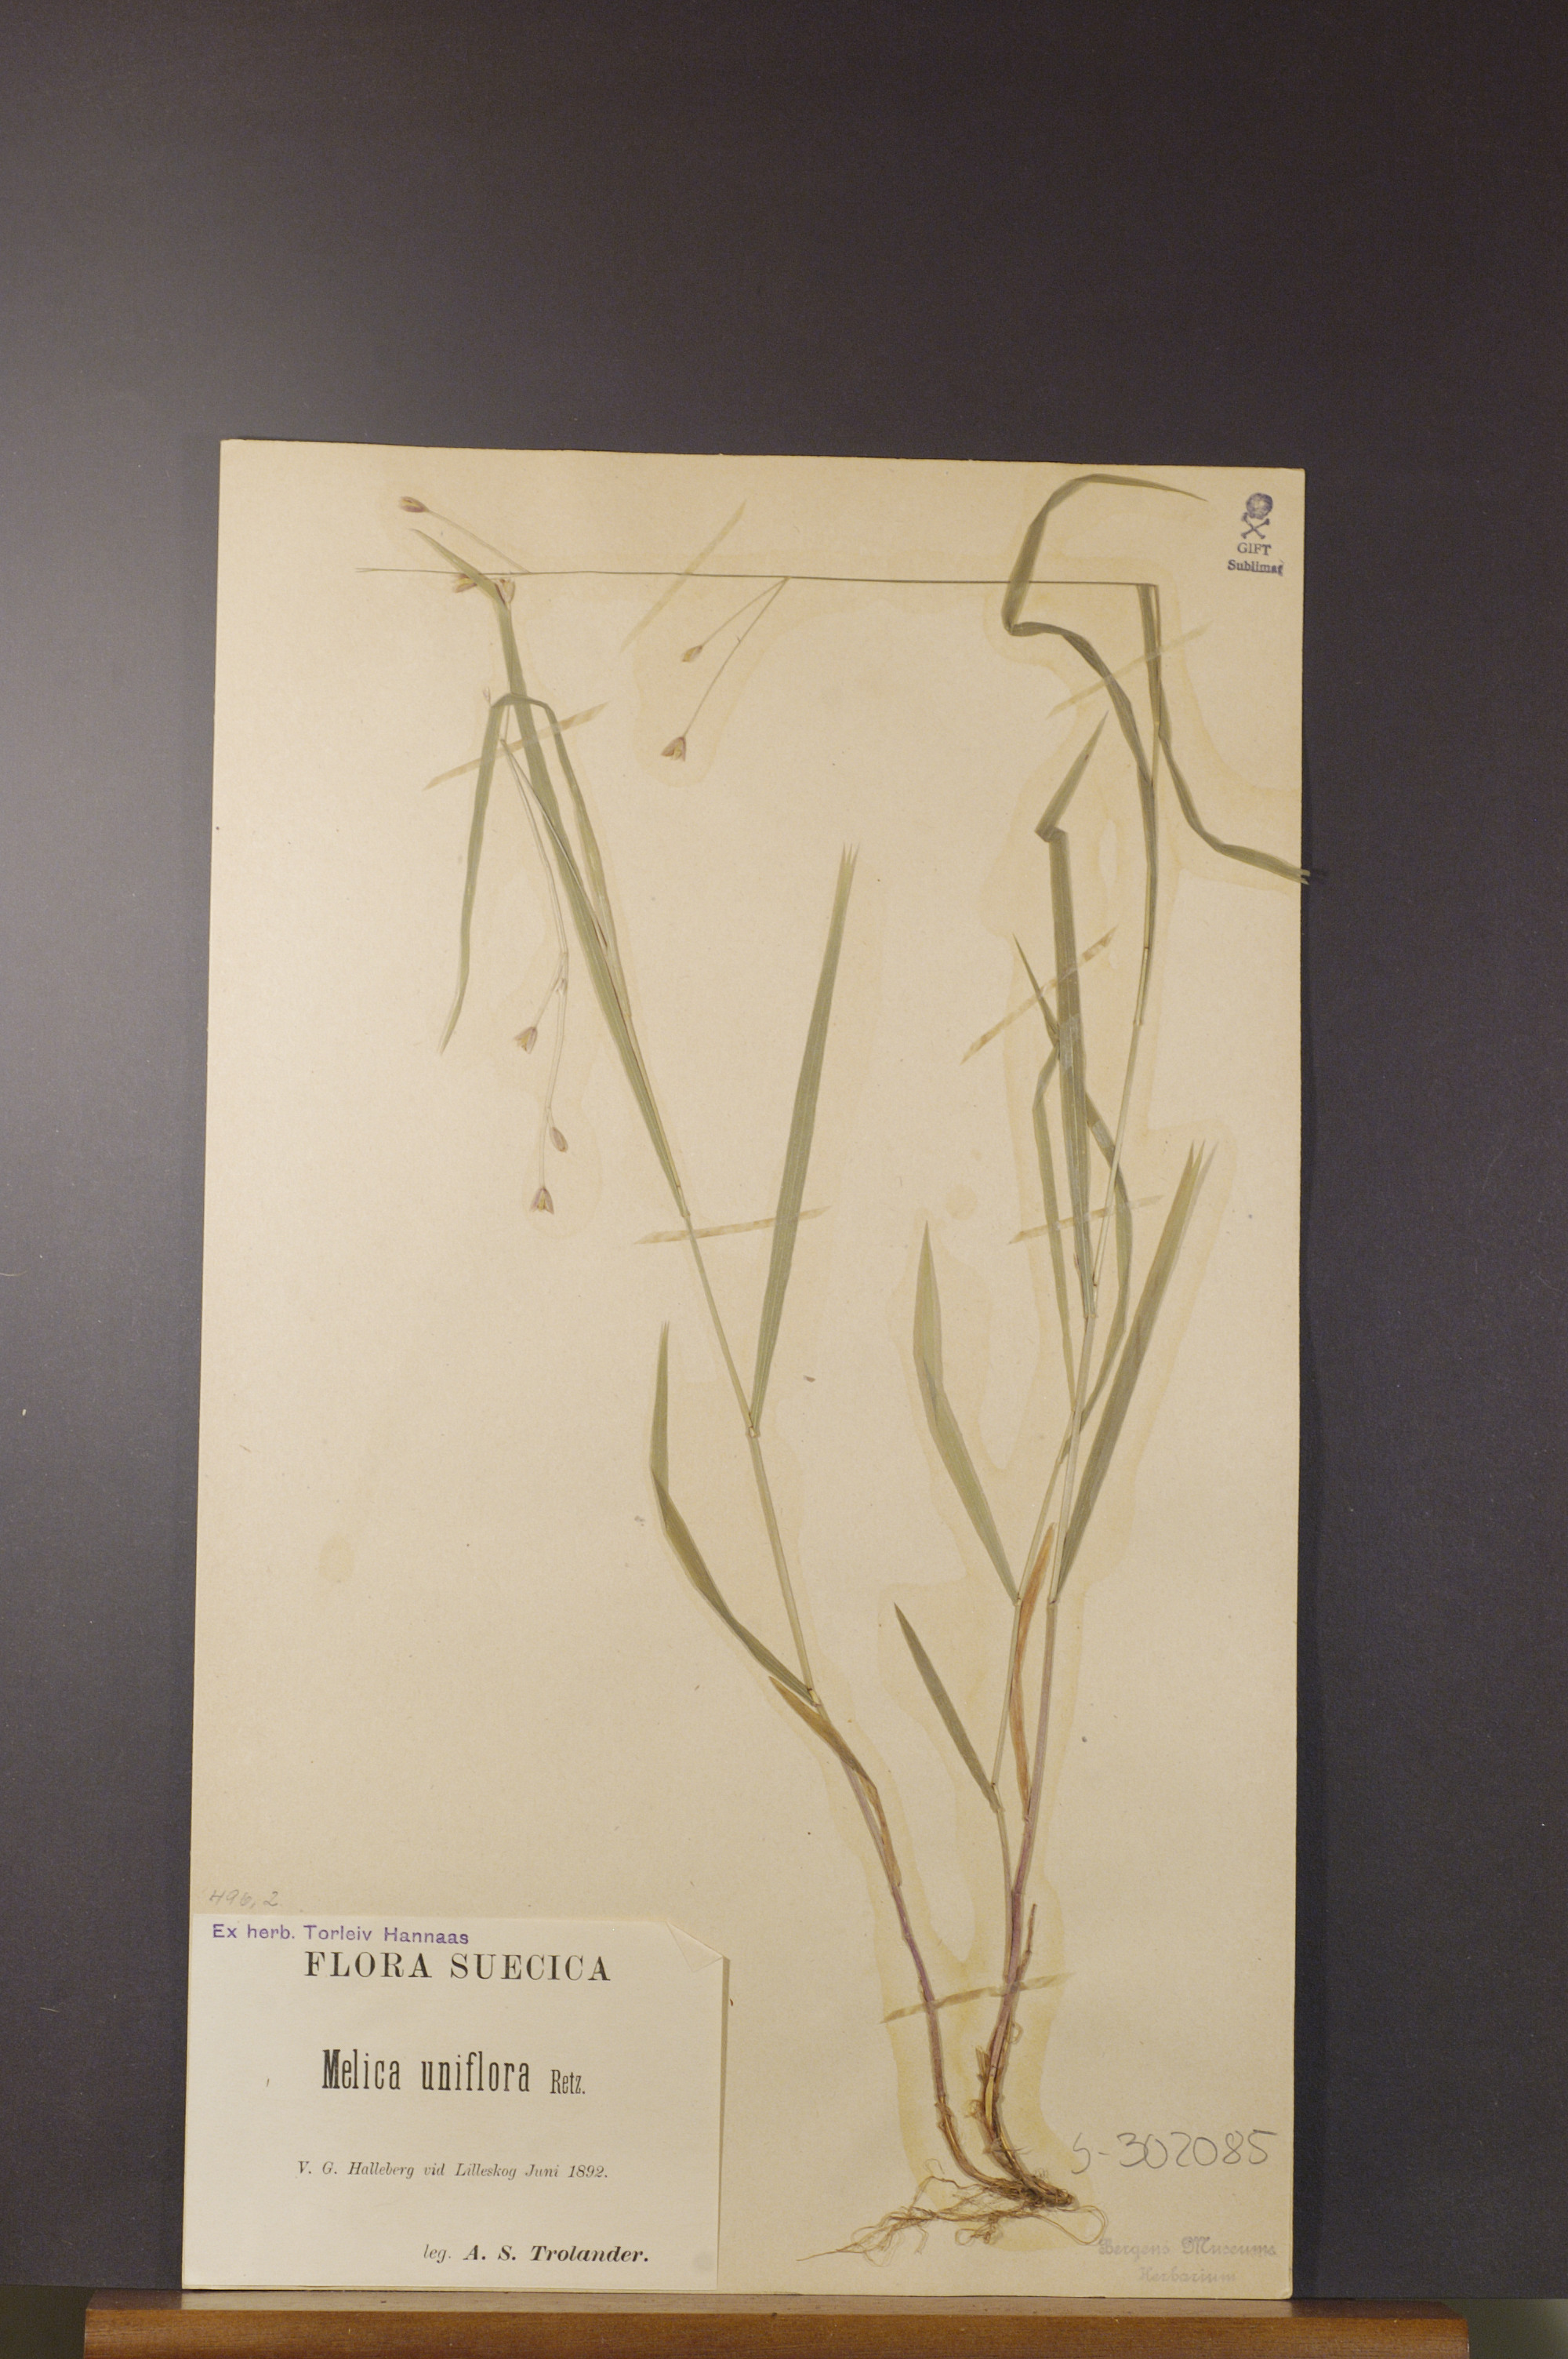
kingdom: Plantae
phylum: Tracheophyta
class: Liliopsida
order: Poales
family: Poaceae
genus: Melica
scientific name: Melica uniflora
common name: Wood melick
